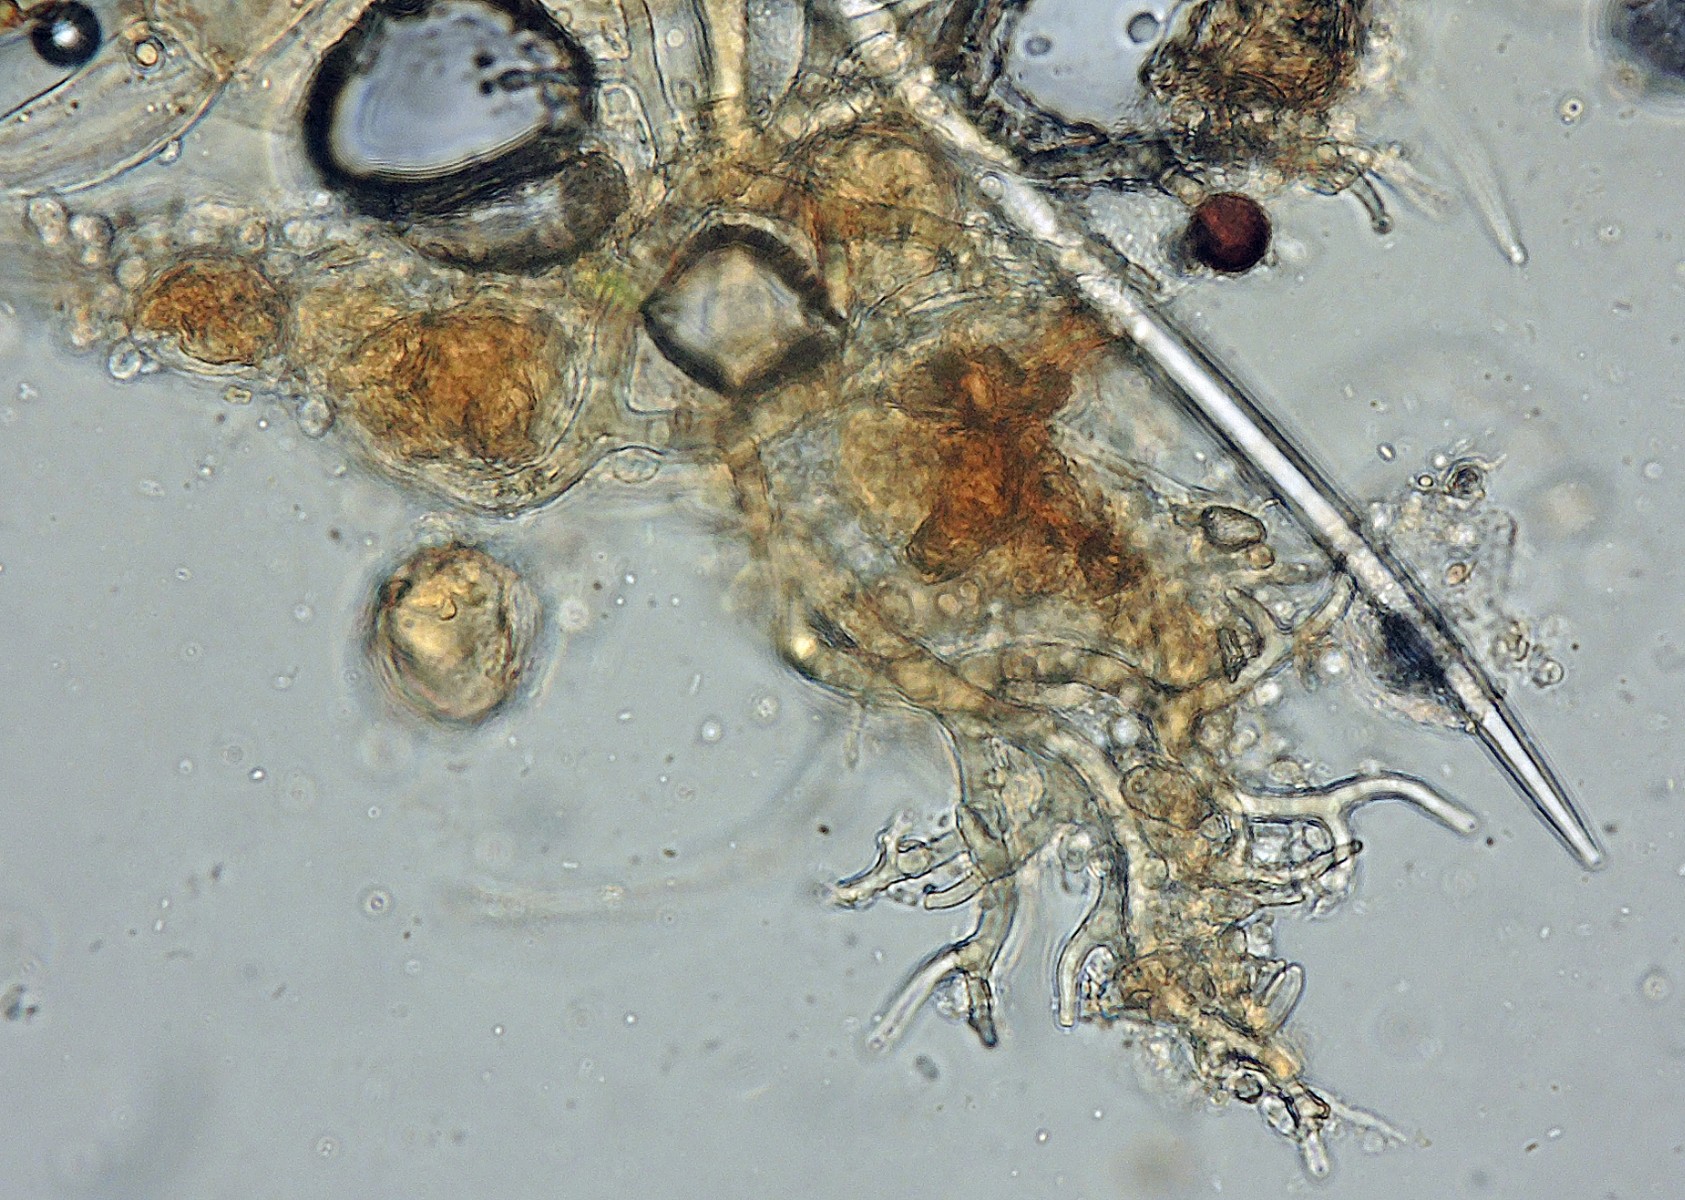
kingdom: Chromista
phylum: Oomycota
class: Peronosporea
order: Peronosporales
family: Peronosporaceae
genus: Peronospora
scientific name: Peronospora conglomerata
